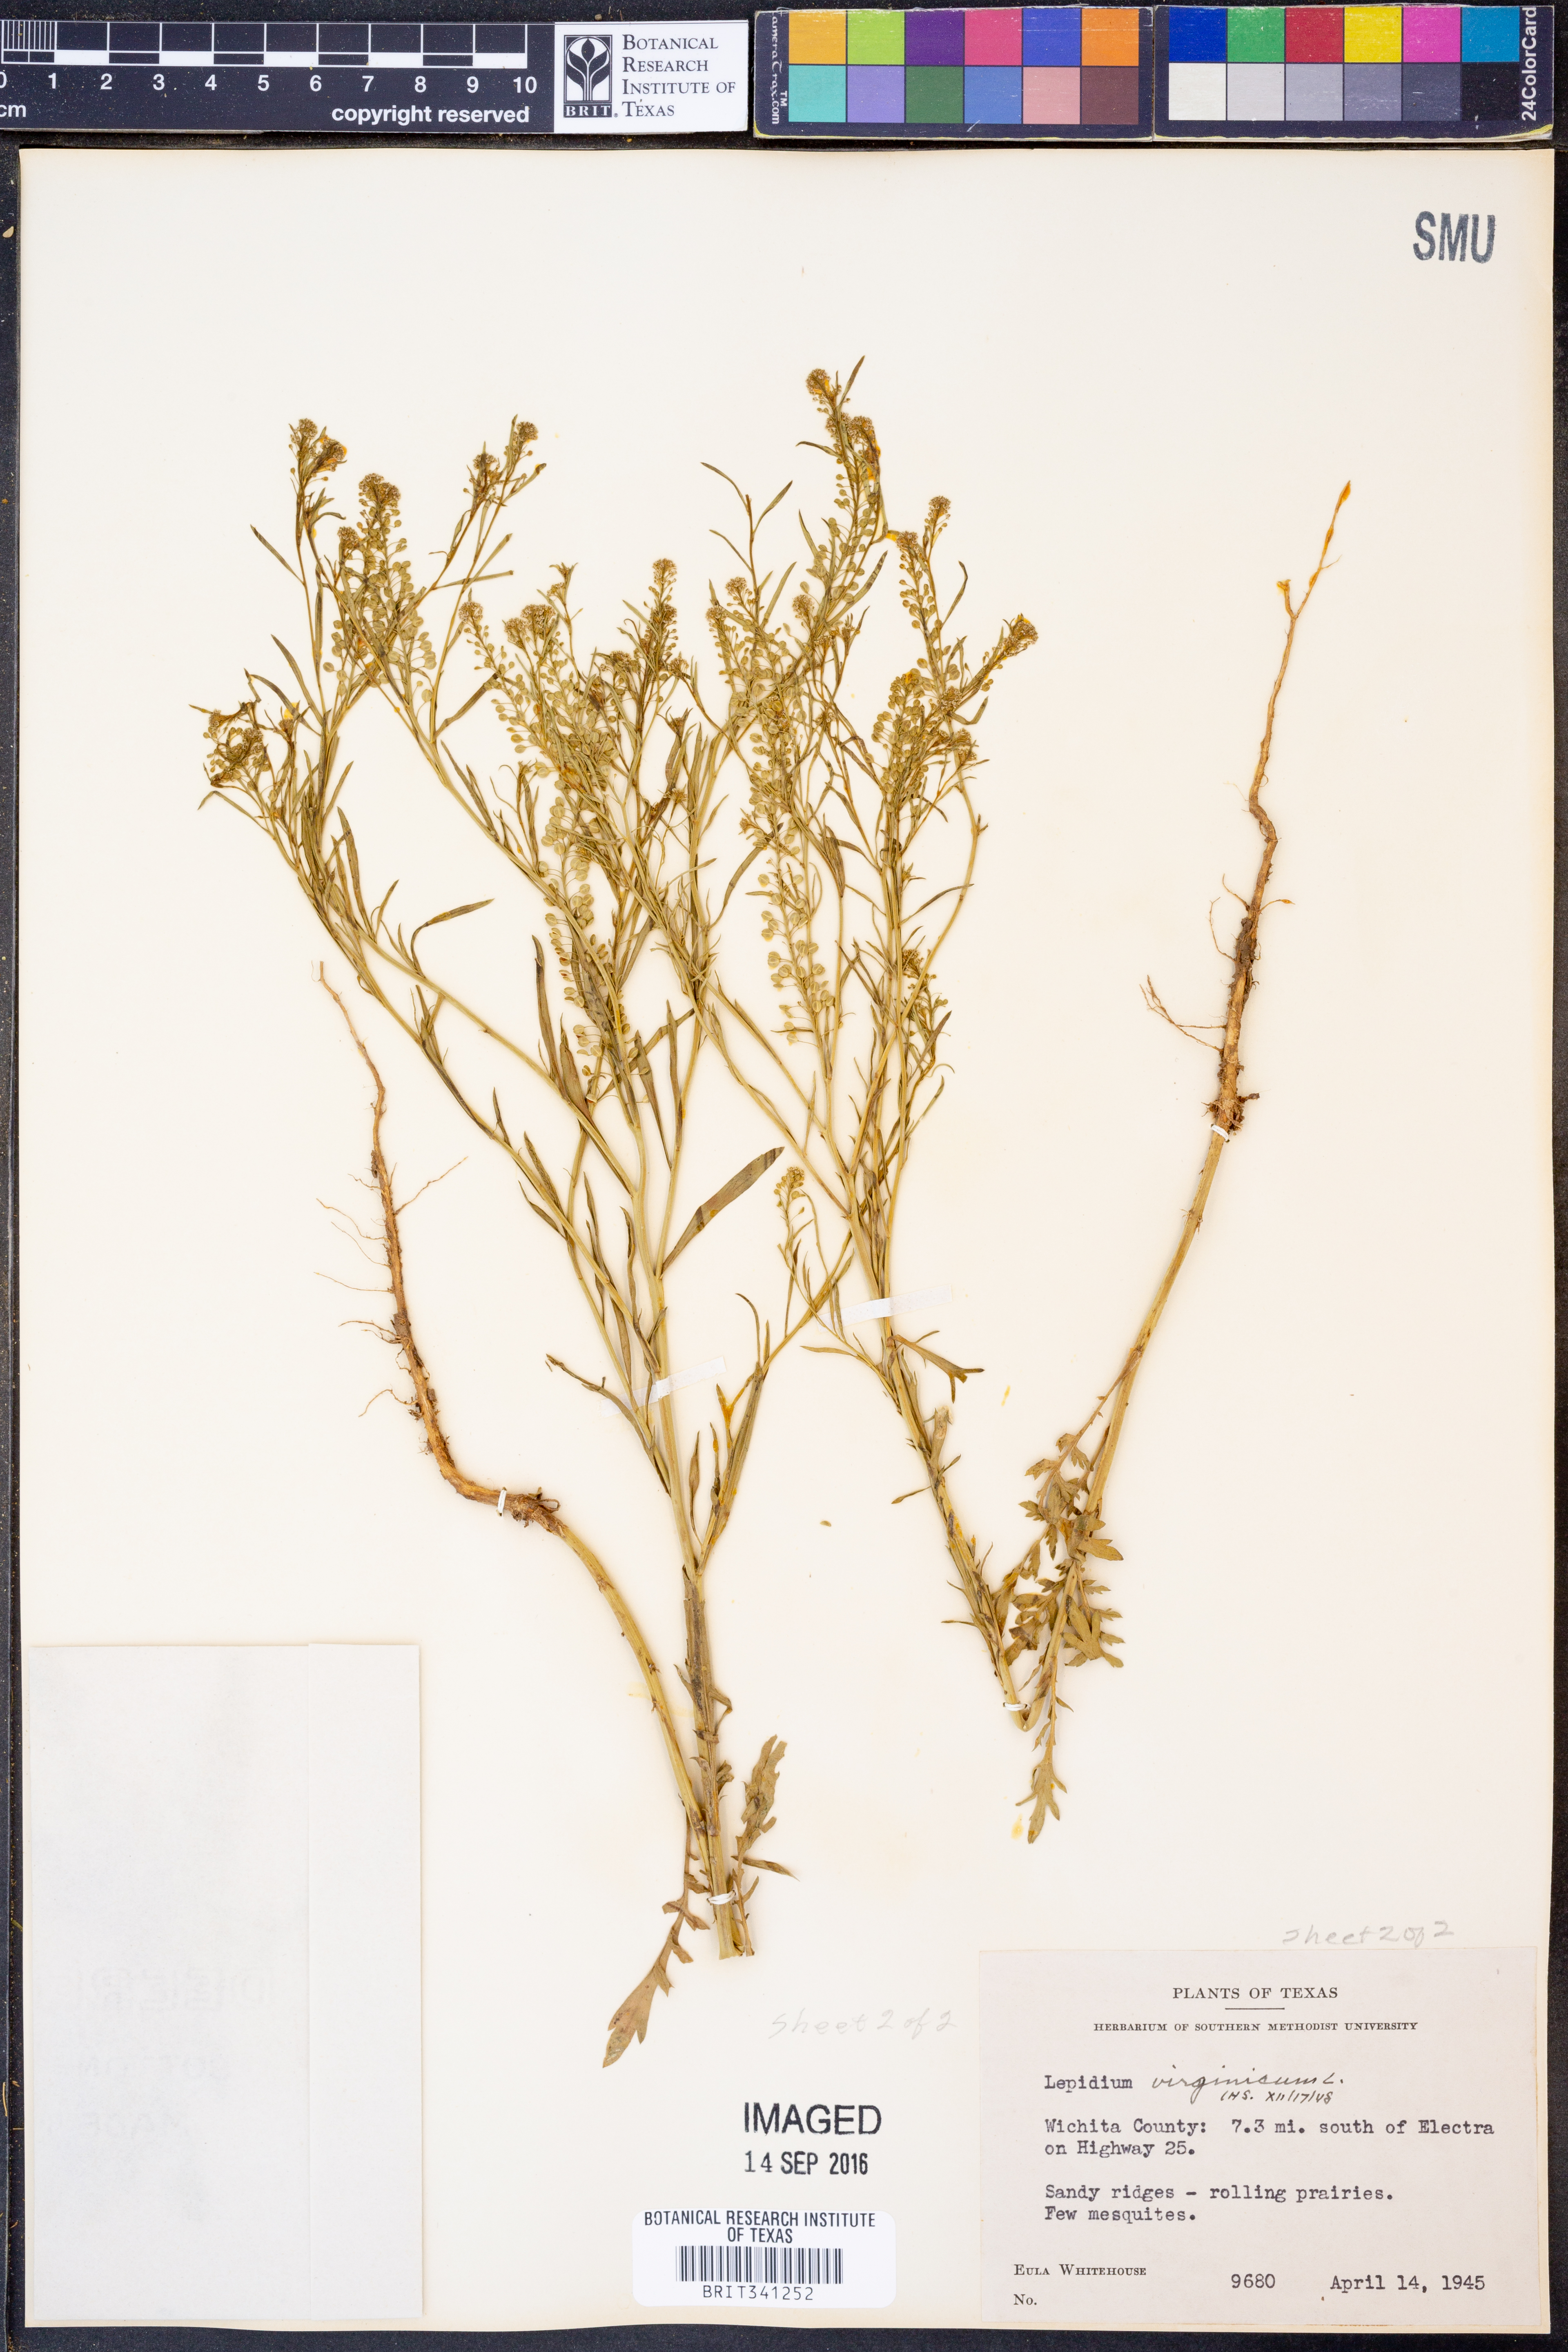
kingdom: Plantae
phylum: Tracheophyta
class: Magnoliopsida
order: Brassicales
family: Brassicaceae
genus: Lepidium
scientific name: Lepidium virginicum
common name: Least pepperwort
